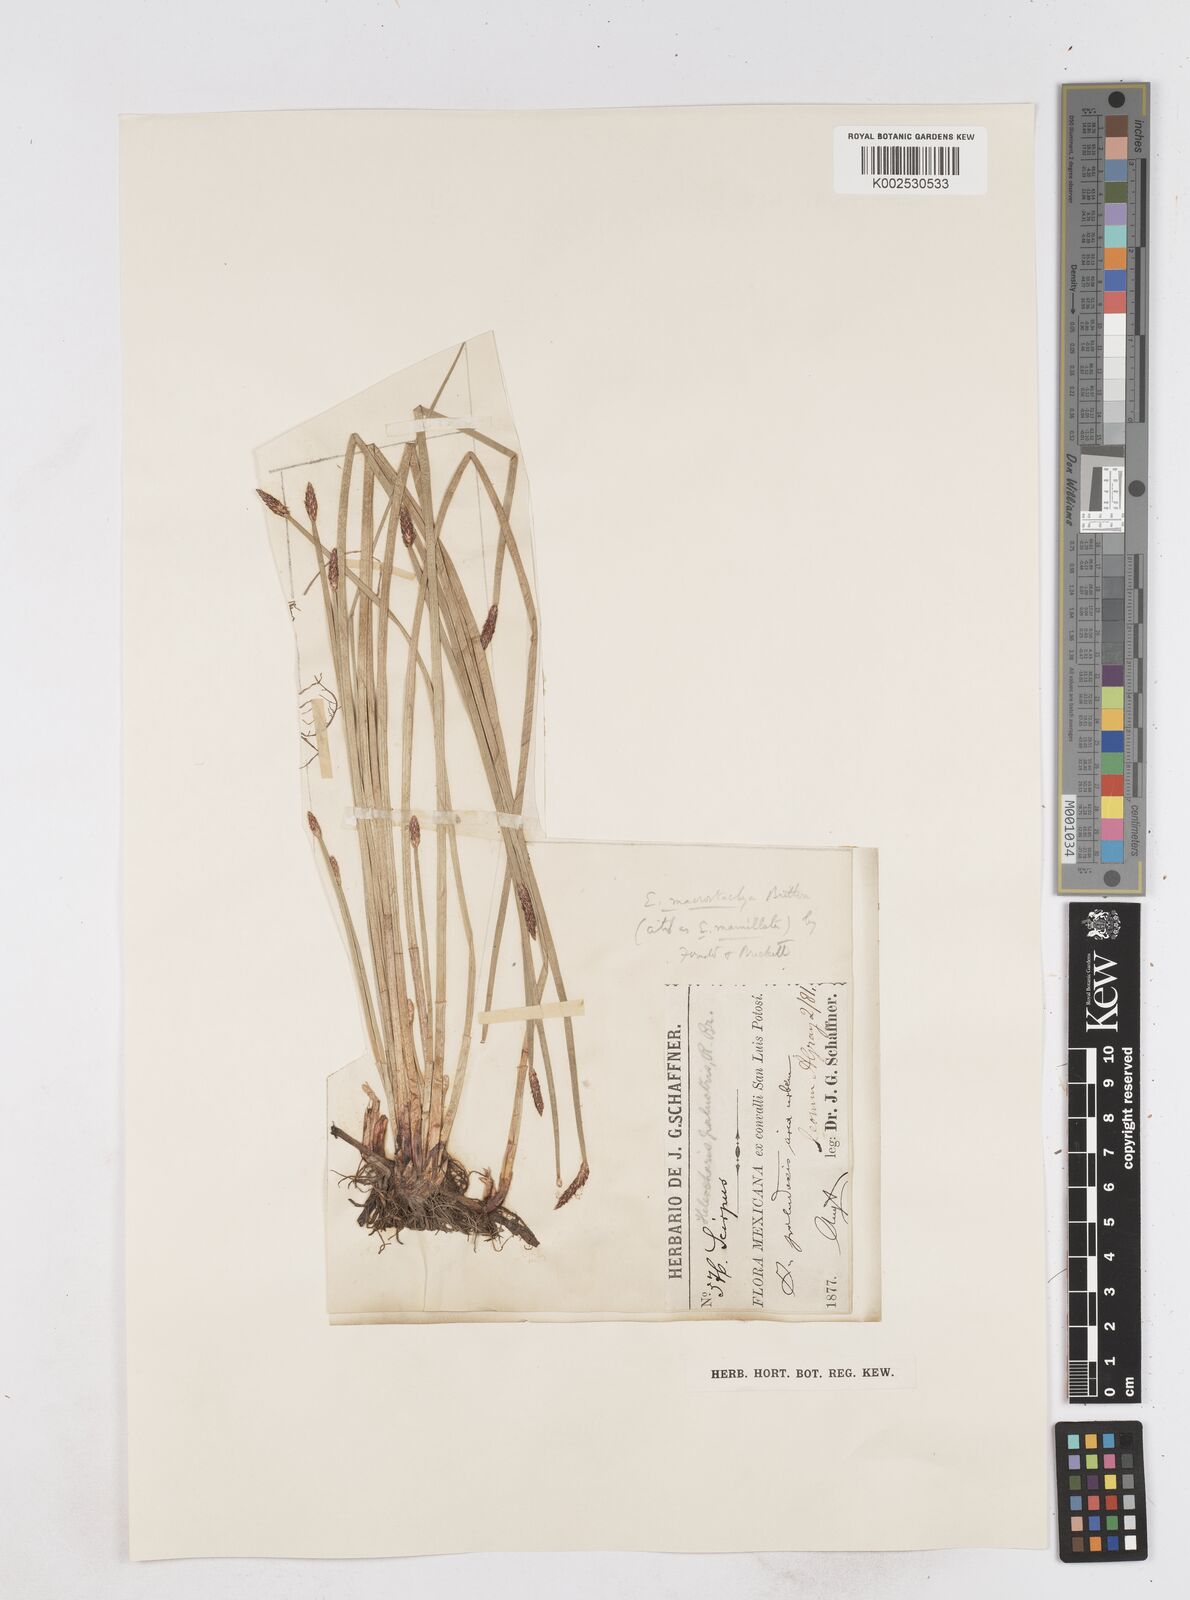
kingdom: Plantae
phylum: Tracheophyta
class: Liliopsida
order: Poales
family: Cyperaceae
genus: Eleocharis
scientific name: Eleocharis macrostachya
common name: Pale spikerush
